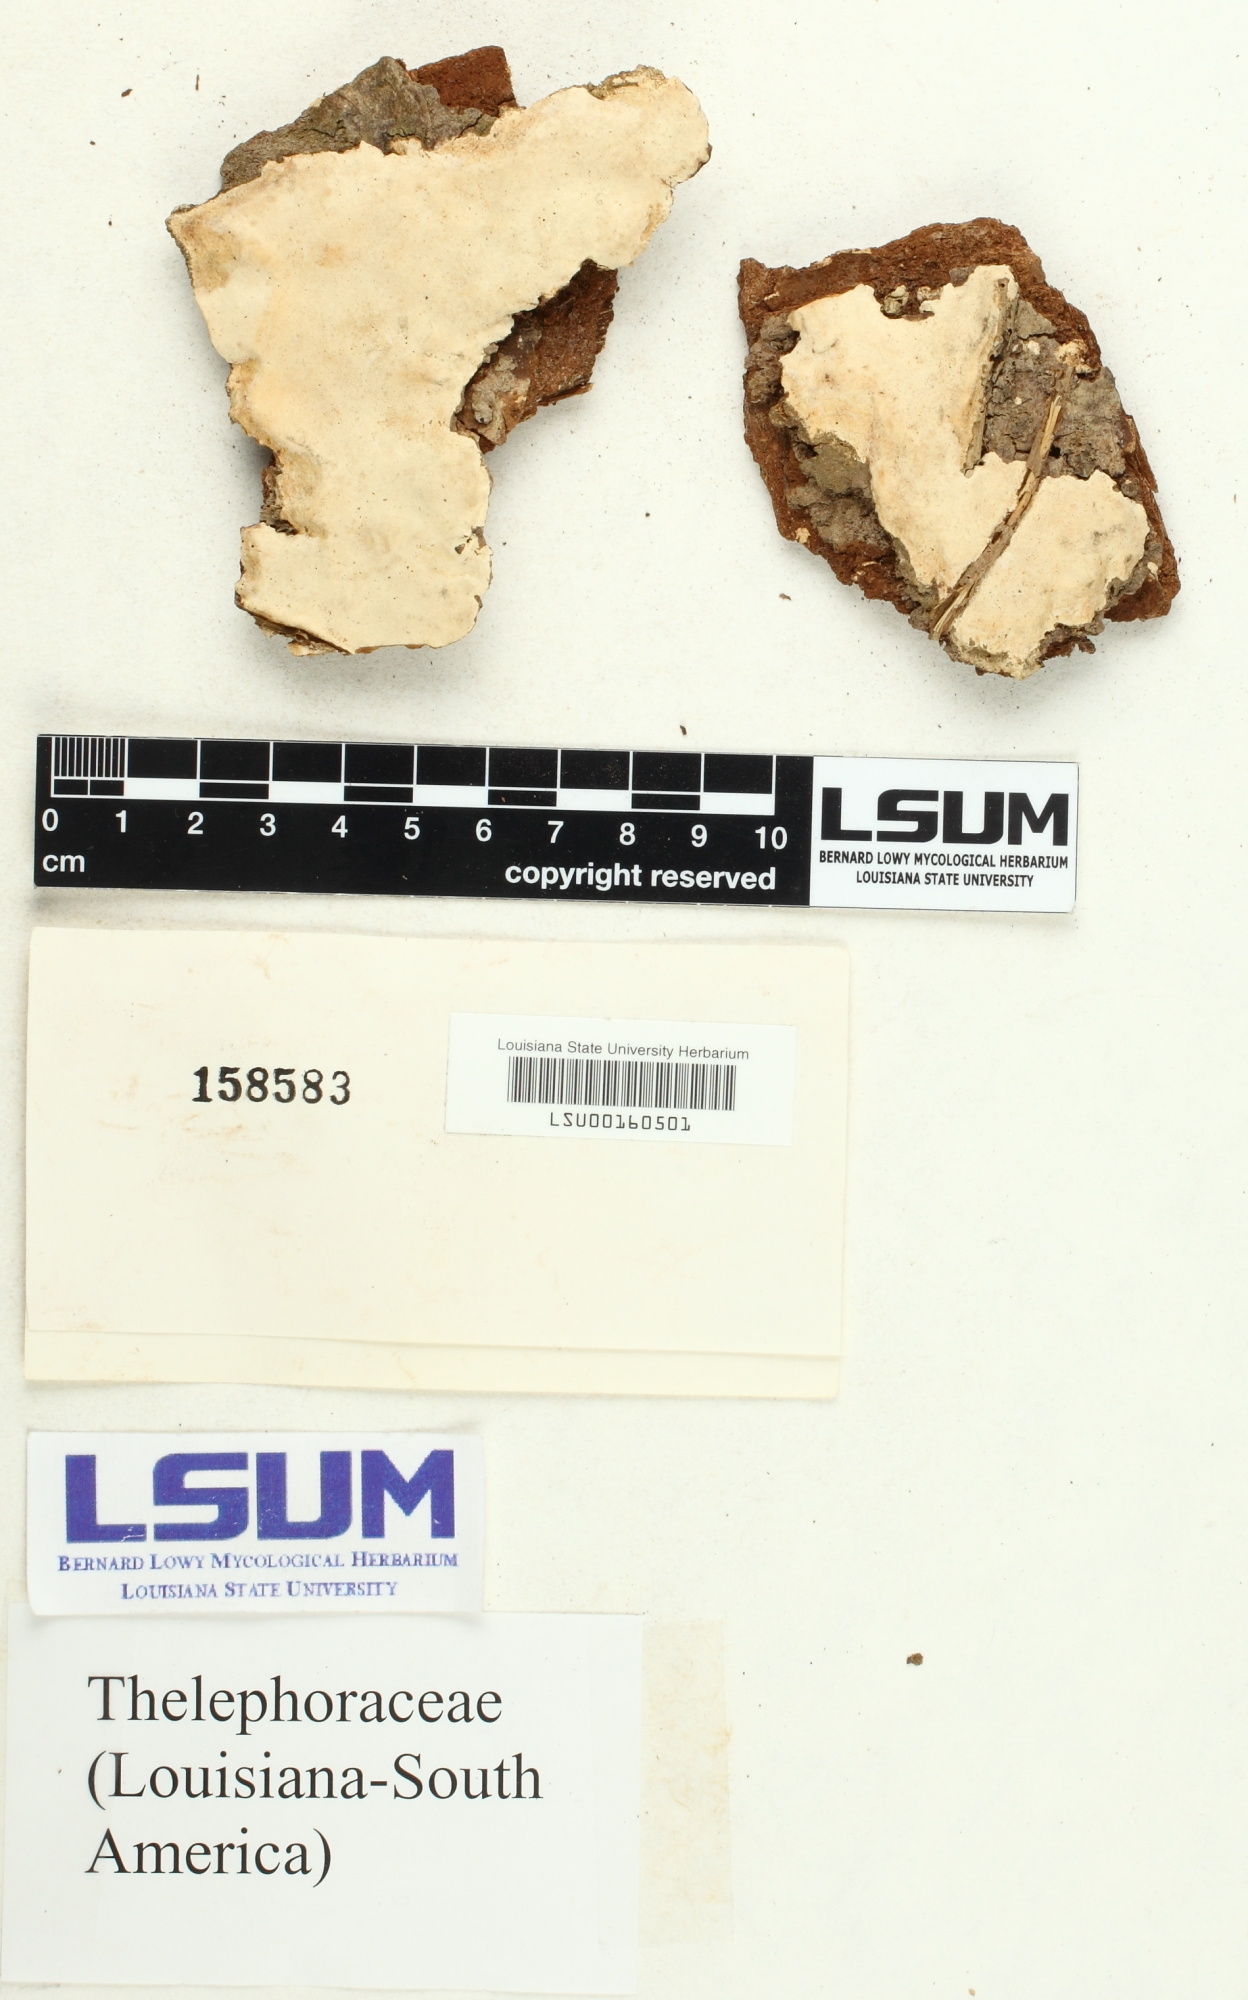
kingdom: Fungi
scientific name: Fungi
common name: Fungi
